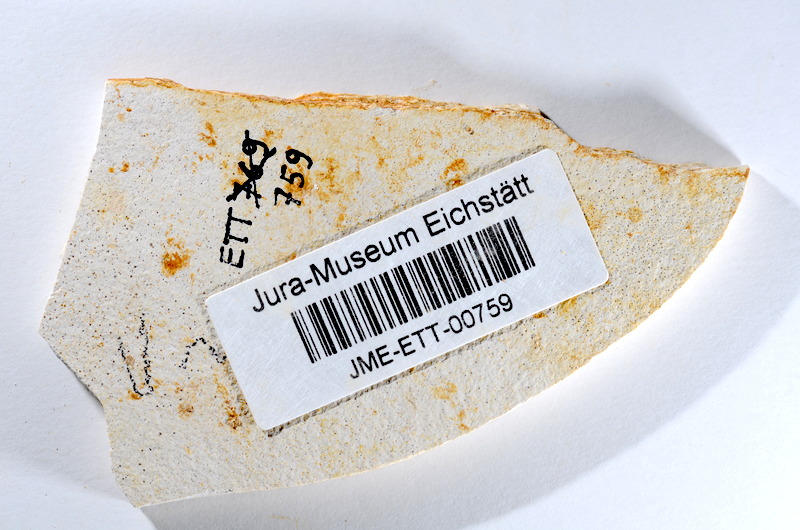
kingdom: Animalia
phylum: Chordata
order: Salmoniformes
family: Orthogonikleithridae
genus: Orthogonikleithrus
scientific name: Orthogonikleithrus hoelli
